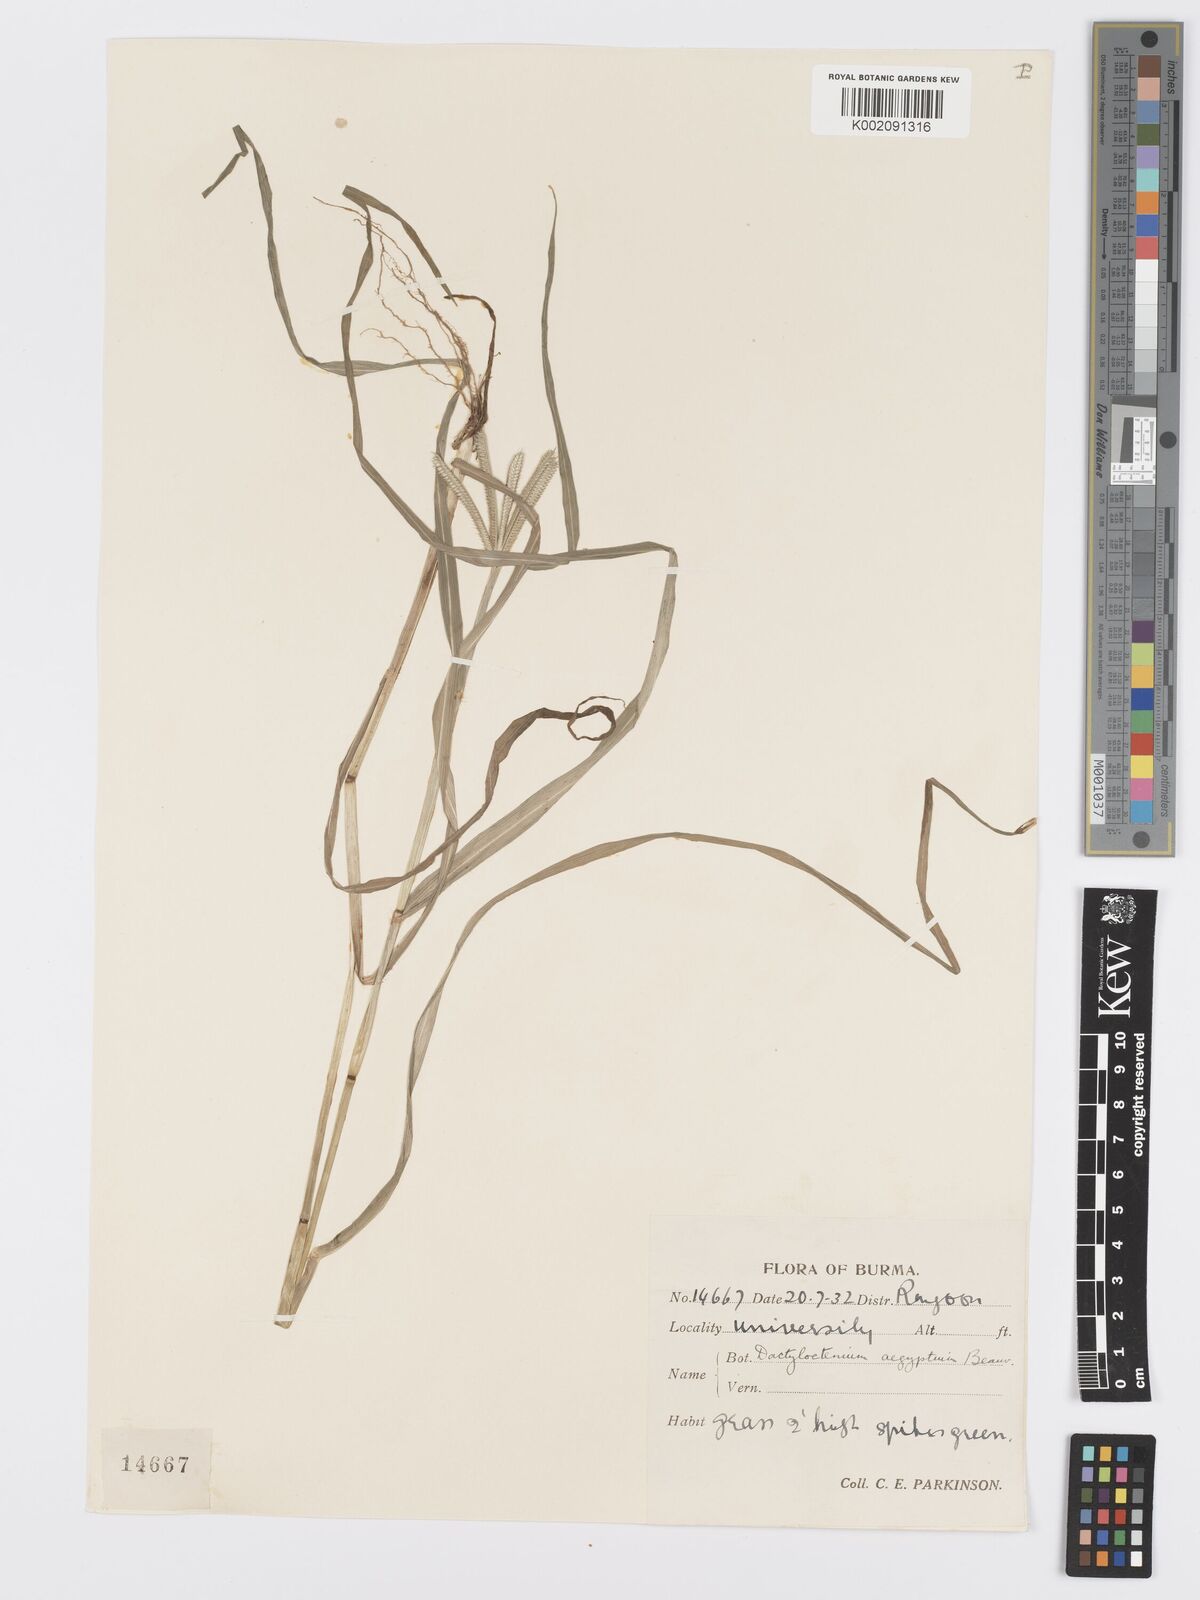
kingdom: Plantae
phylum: Tracheophyta
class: Liliopsida
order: Poales
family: Poaceae
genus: Dactyloctenium
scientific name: Dactyloctenium aegyptium
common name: Egyptian grass
